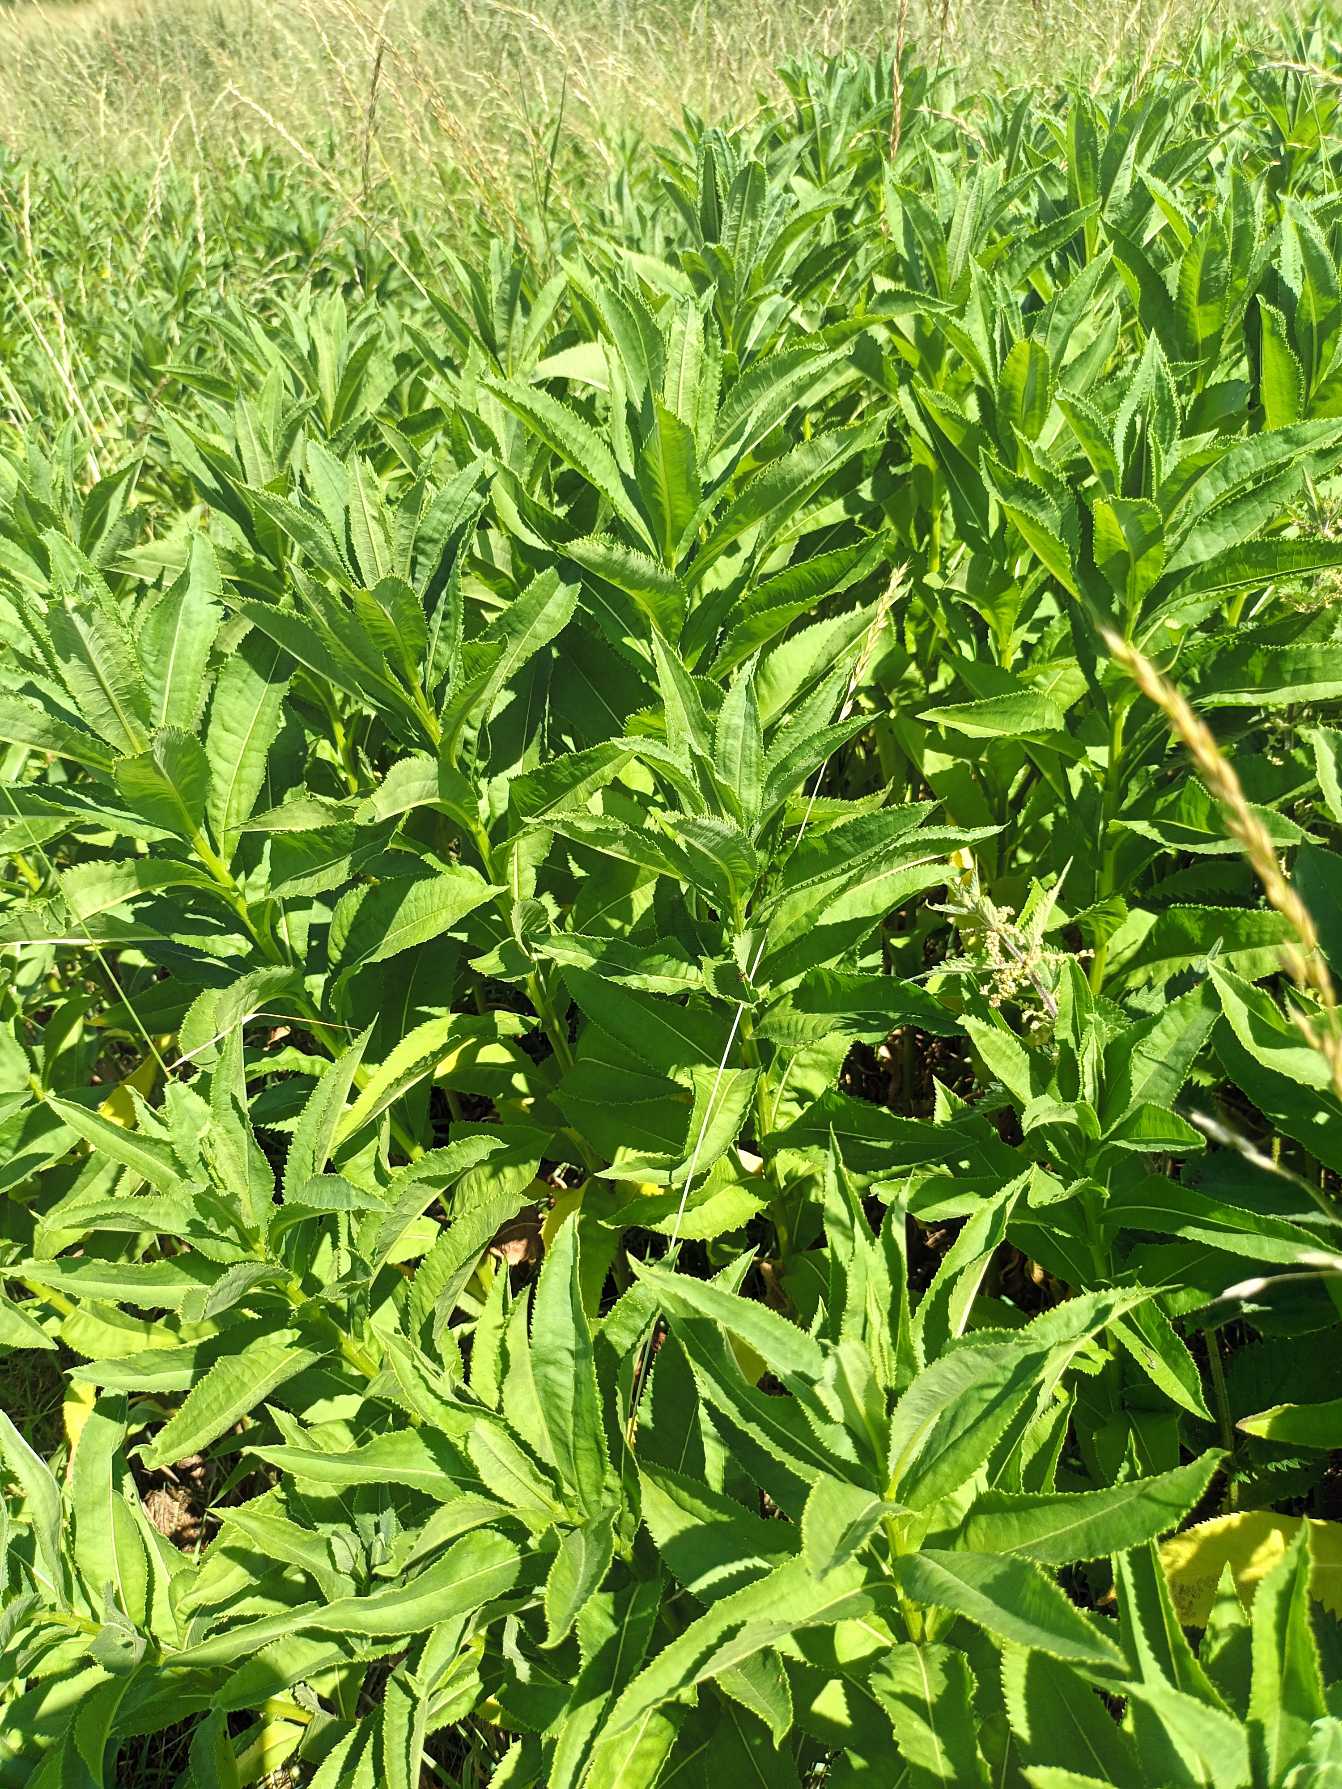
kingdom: Plantae
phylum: Tracheophyta
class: Magnoliopsida
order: Asterales
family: Asteraceae
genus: Senecio
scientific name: Senecio sarracenicus
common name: Saracenisk brandbæger
